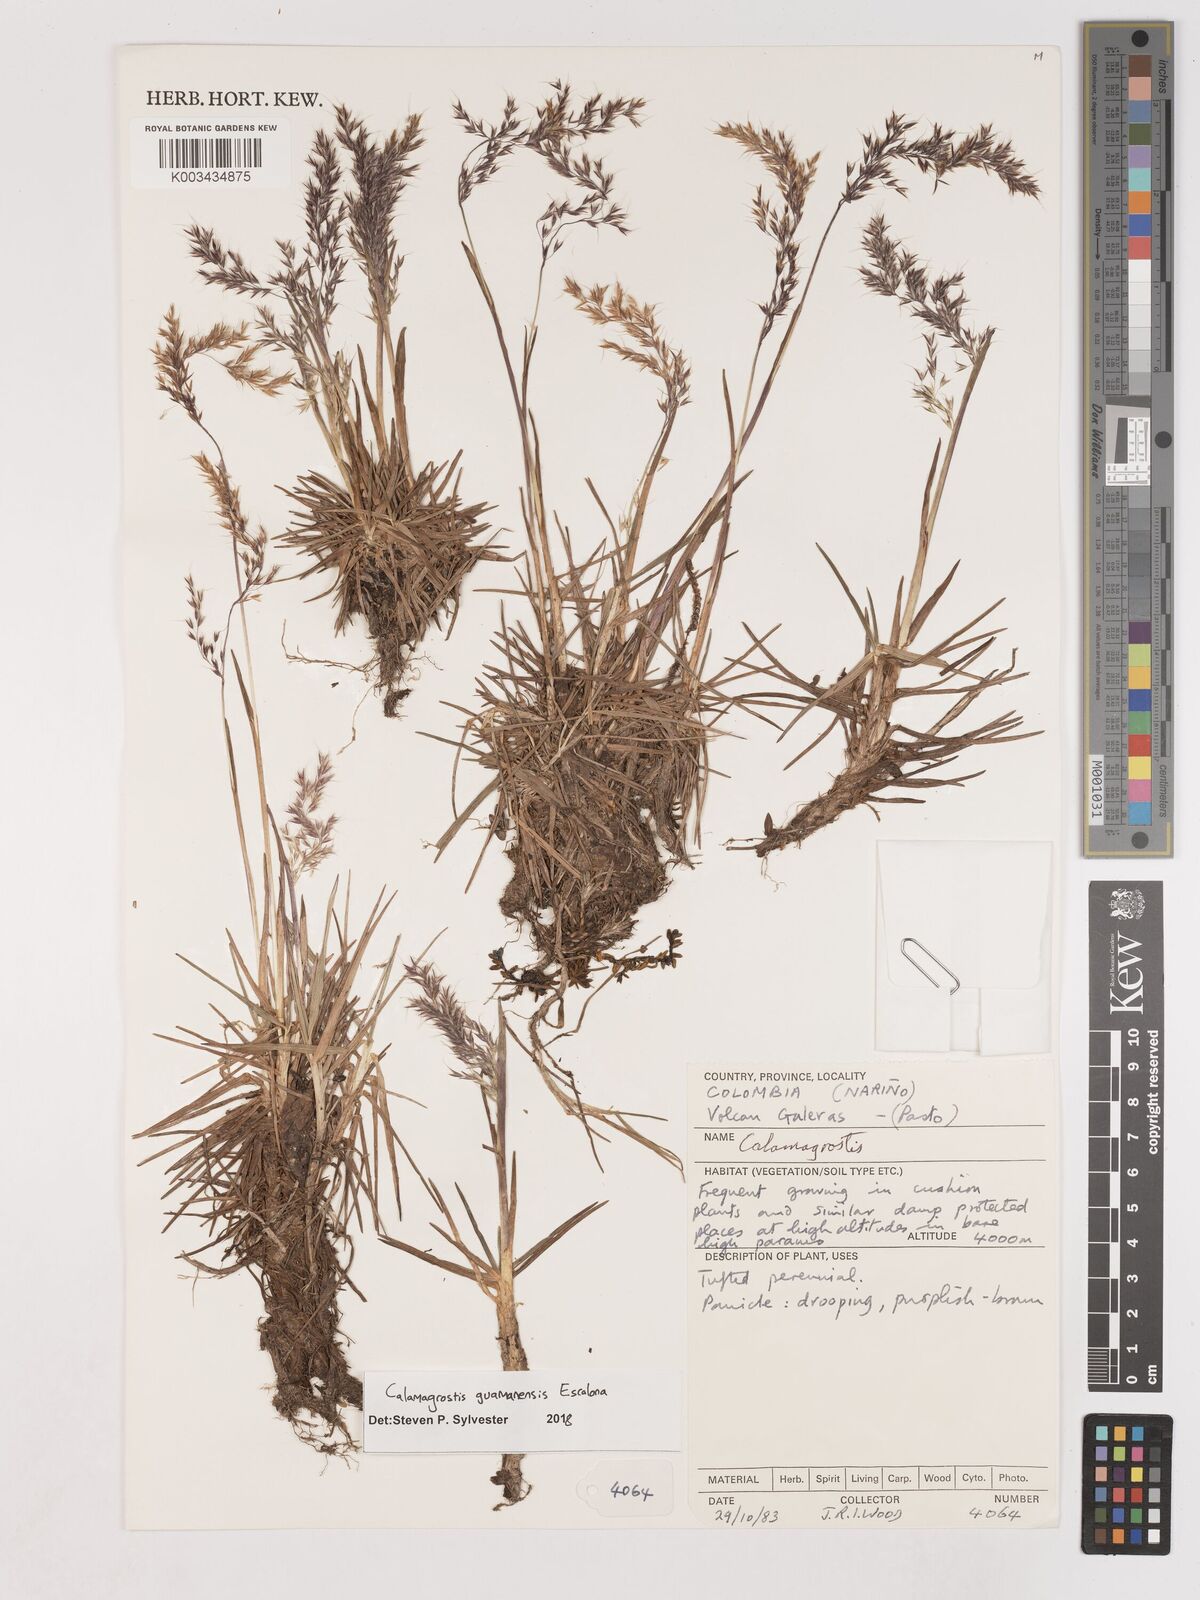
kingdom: Plantae
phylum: Tracheophyta
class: Liliopsida
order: Poales
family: Poaceae
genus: Calamagrostis
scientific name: Calamagrostis
